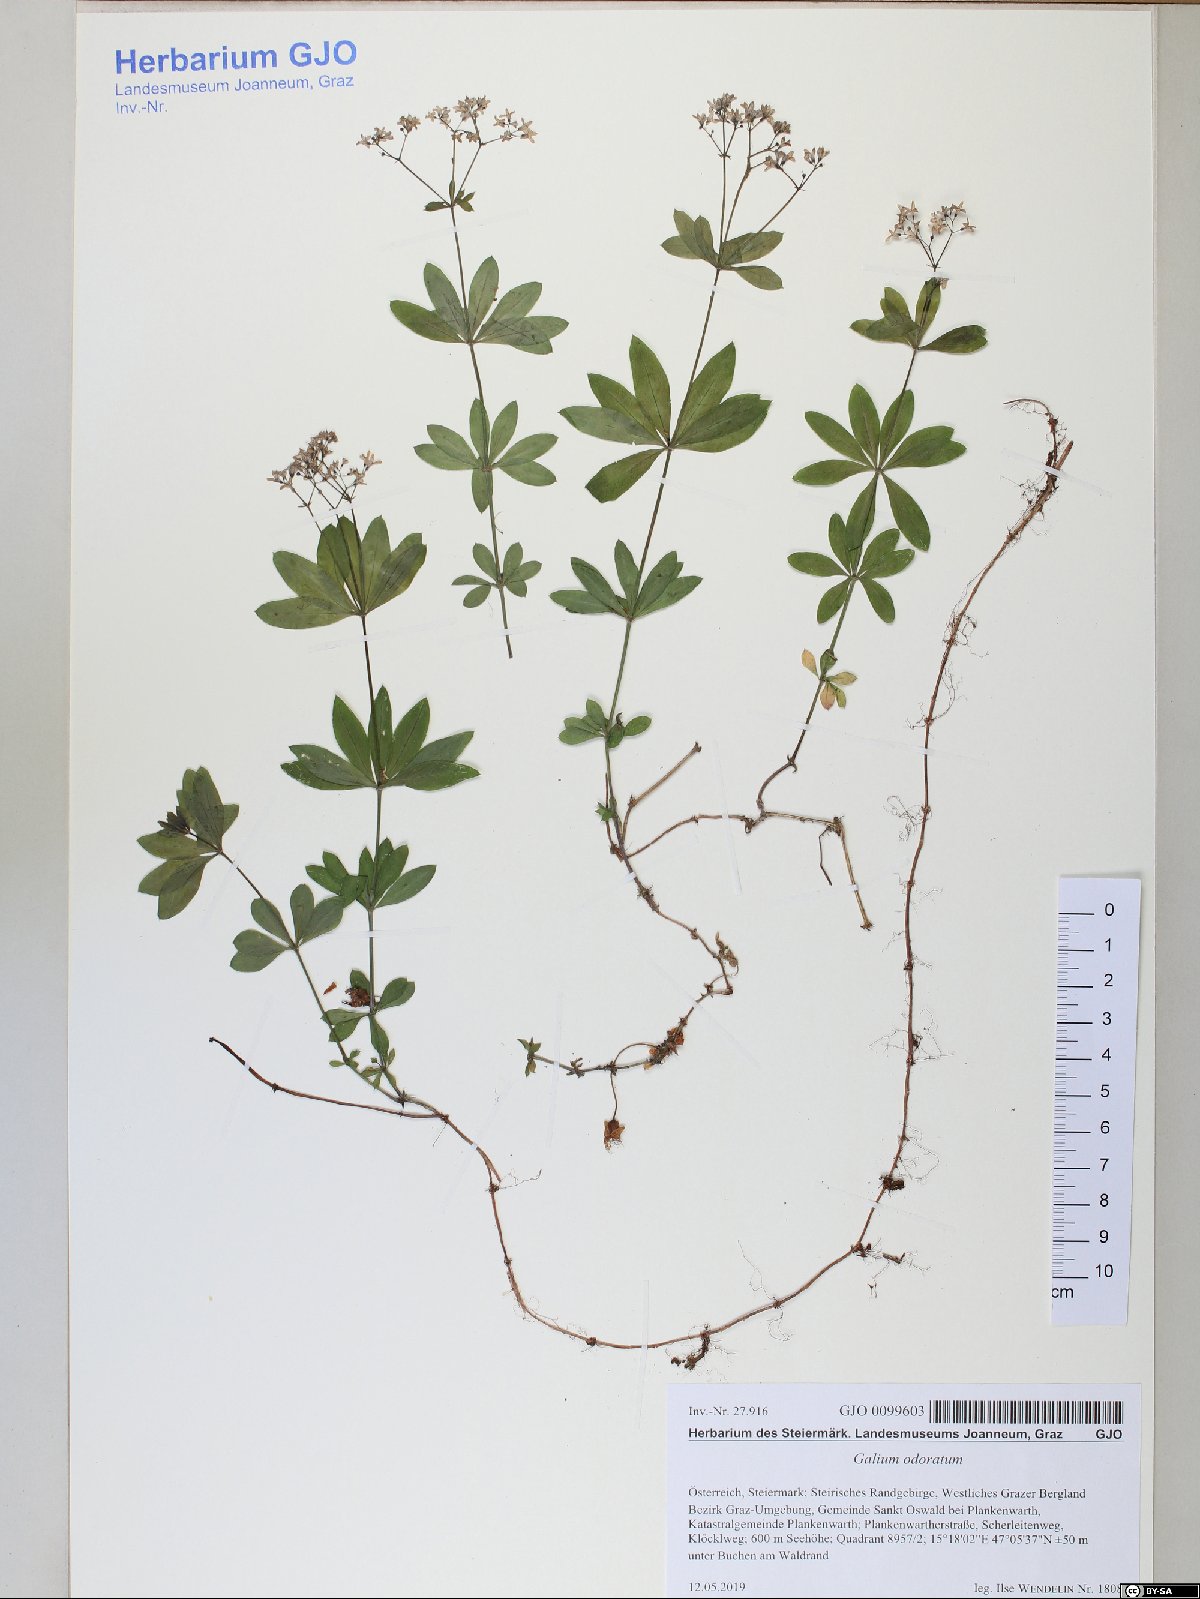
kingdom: Plantae
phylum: Tracheophyta
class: Magnoliopsida
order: Gentianales
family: Rubiaceae
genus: Galium
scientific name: Galium odoratum
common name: Sweet woodruff
